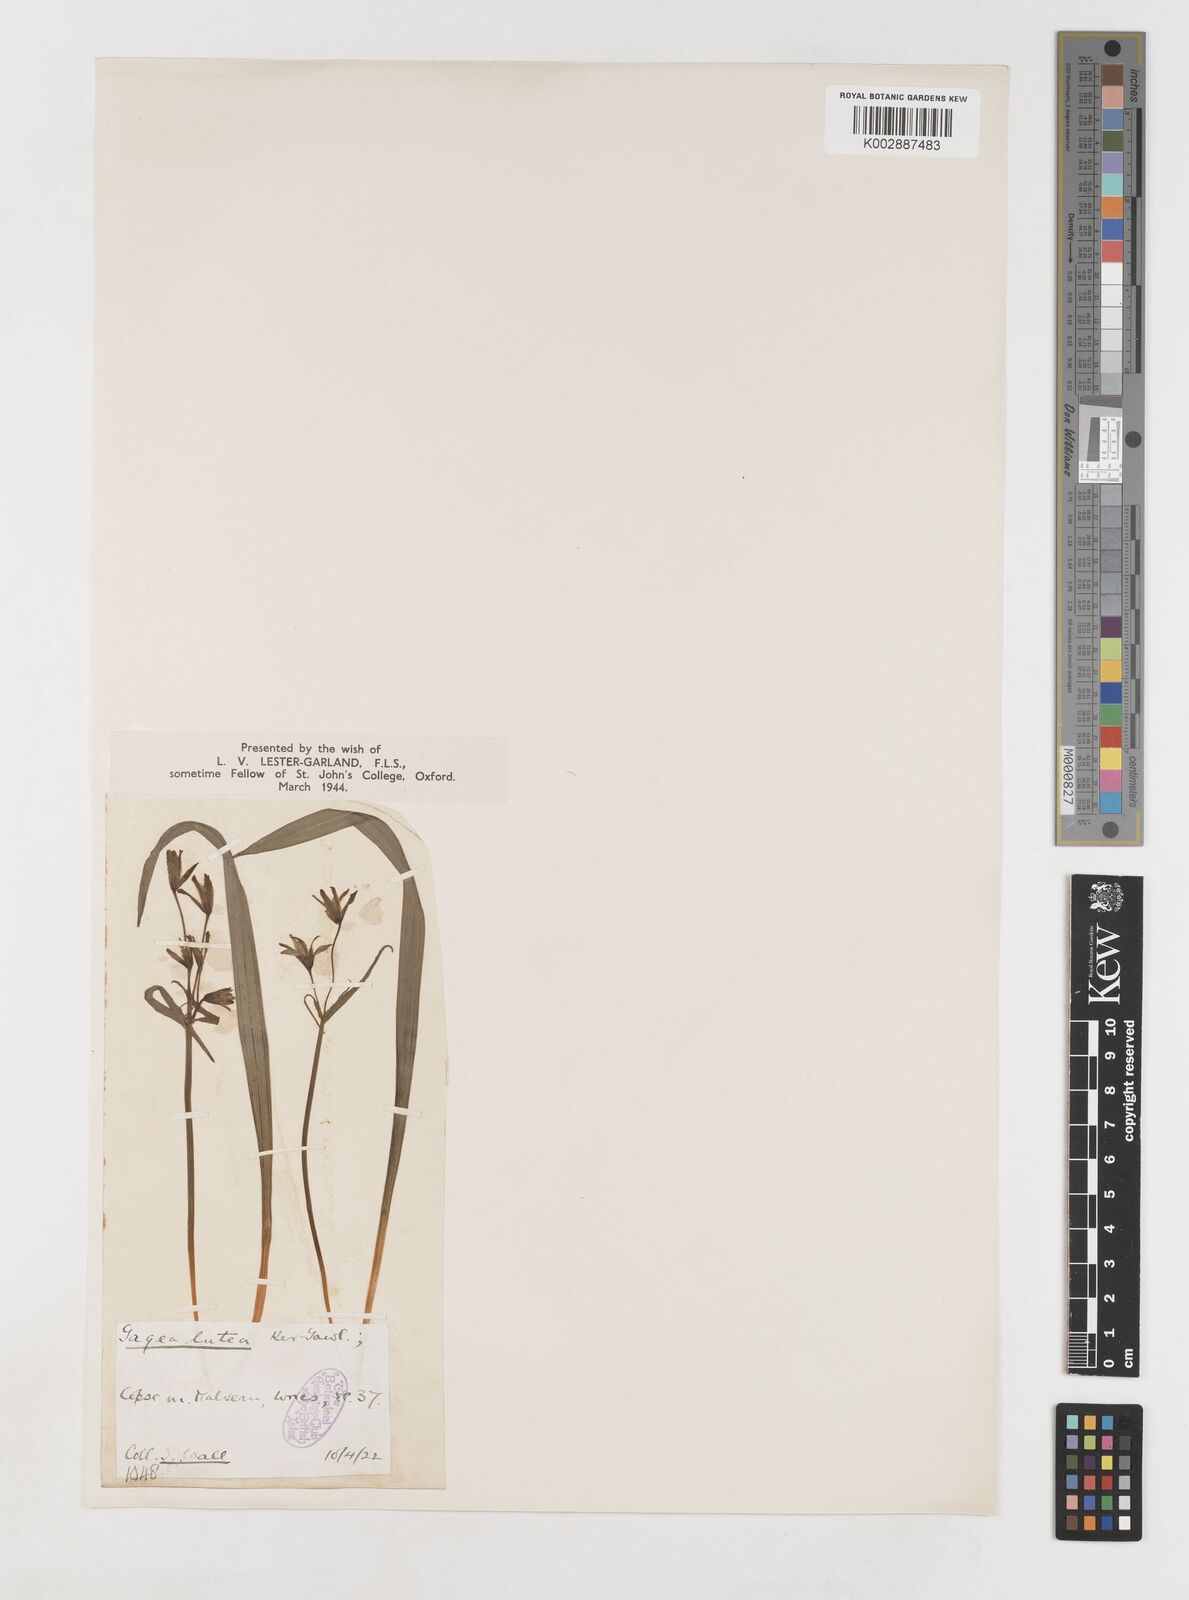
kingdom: Plantae
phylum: Tracheophyta
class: Liliopsida
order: Liliales
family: Liliaceae
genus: Gagea
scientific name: Gagea lutea
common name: Yellow star-of-bethlehem
